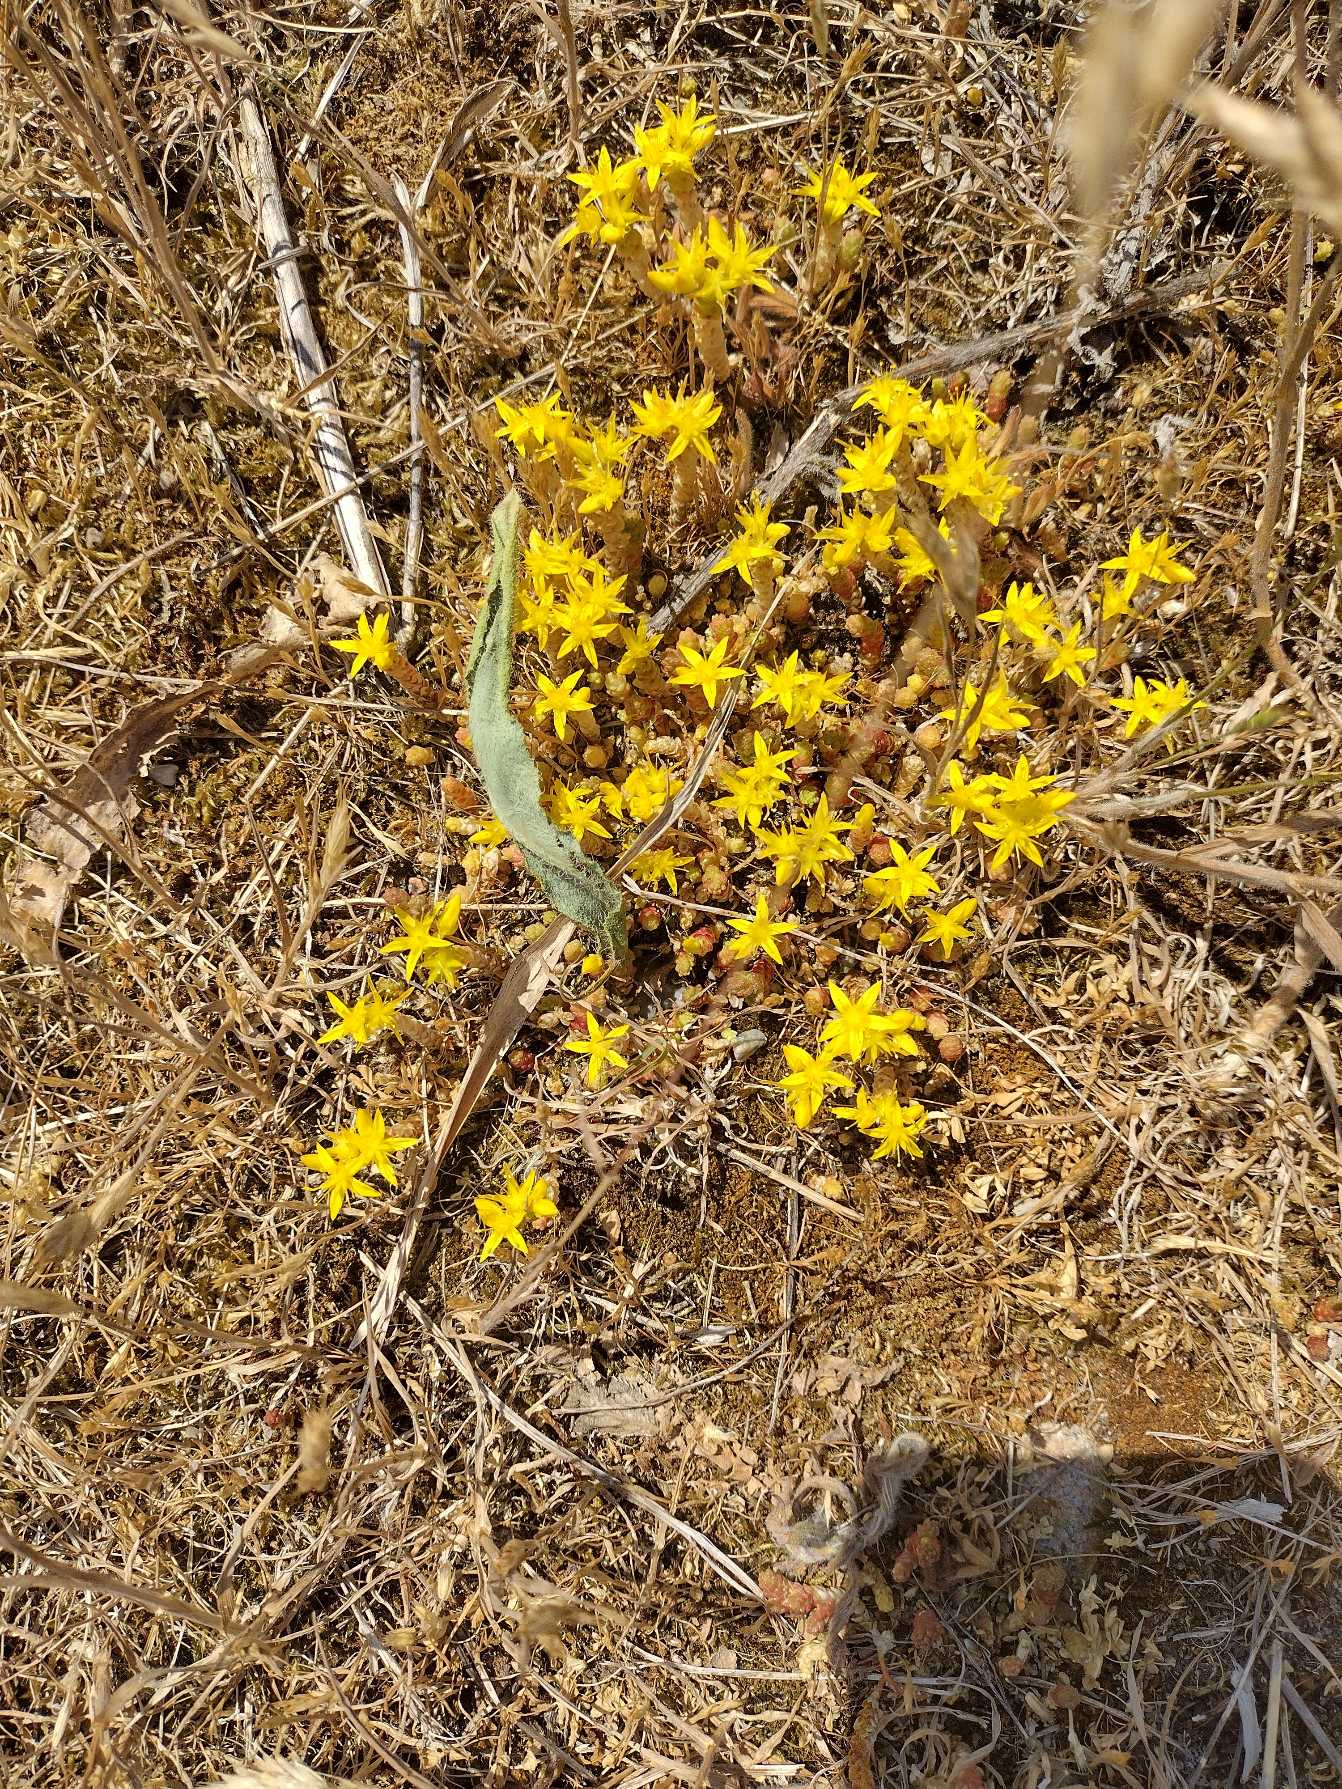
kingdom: Plantae
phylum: Tracheophyta
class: Magnoliopsida
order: Saxifragales
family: Crassulaceae
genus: Sedum
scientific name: Sedum acre
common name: Bidende stenurt
